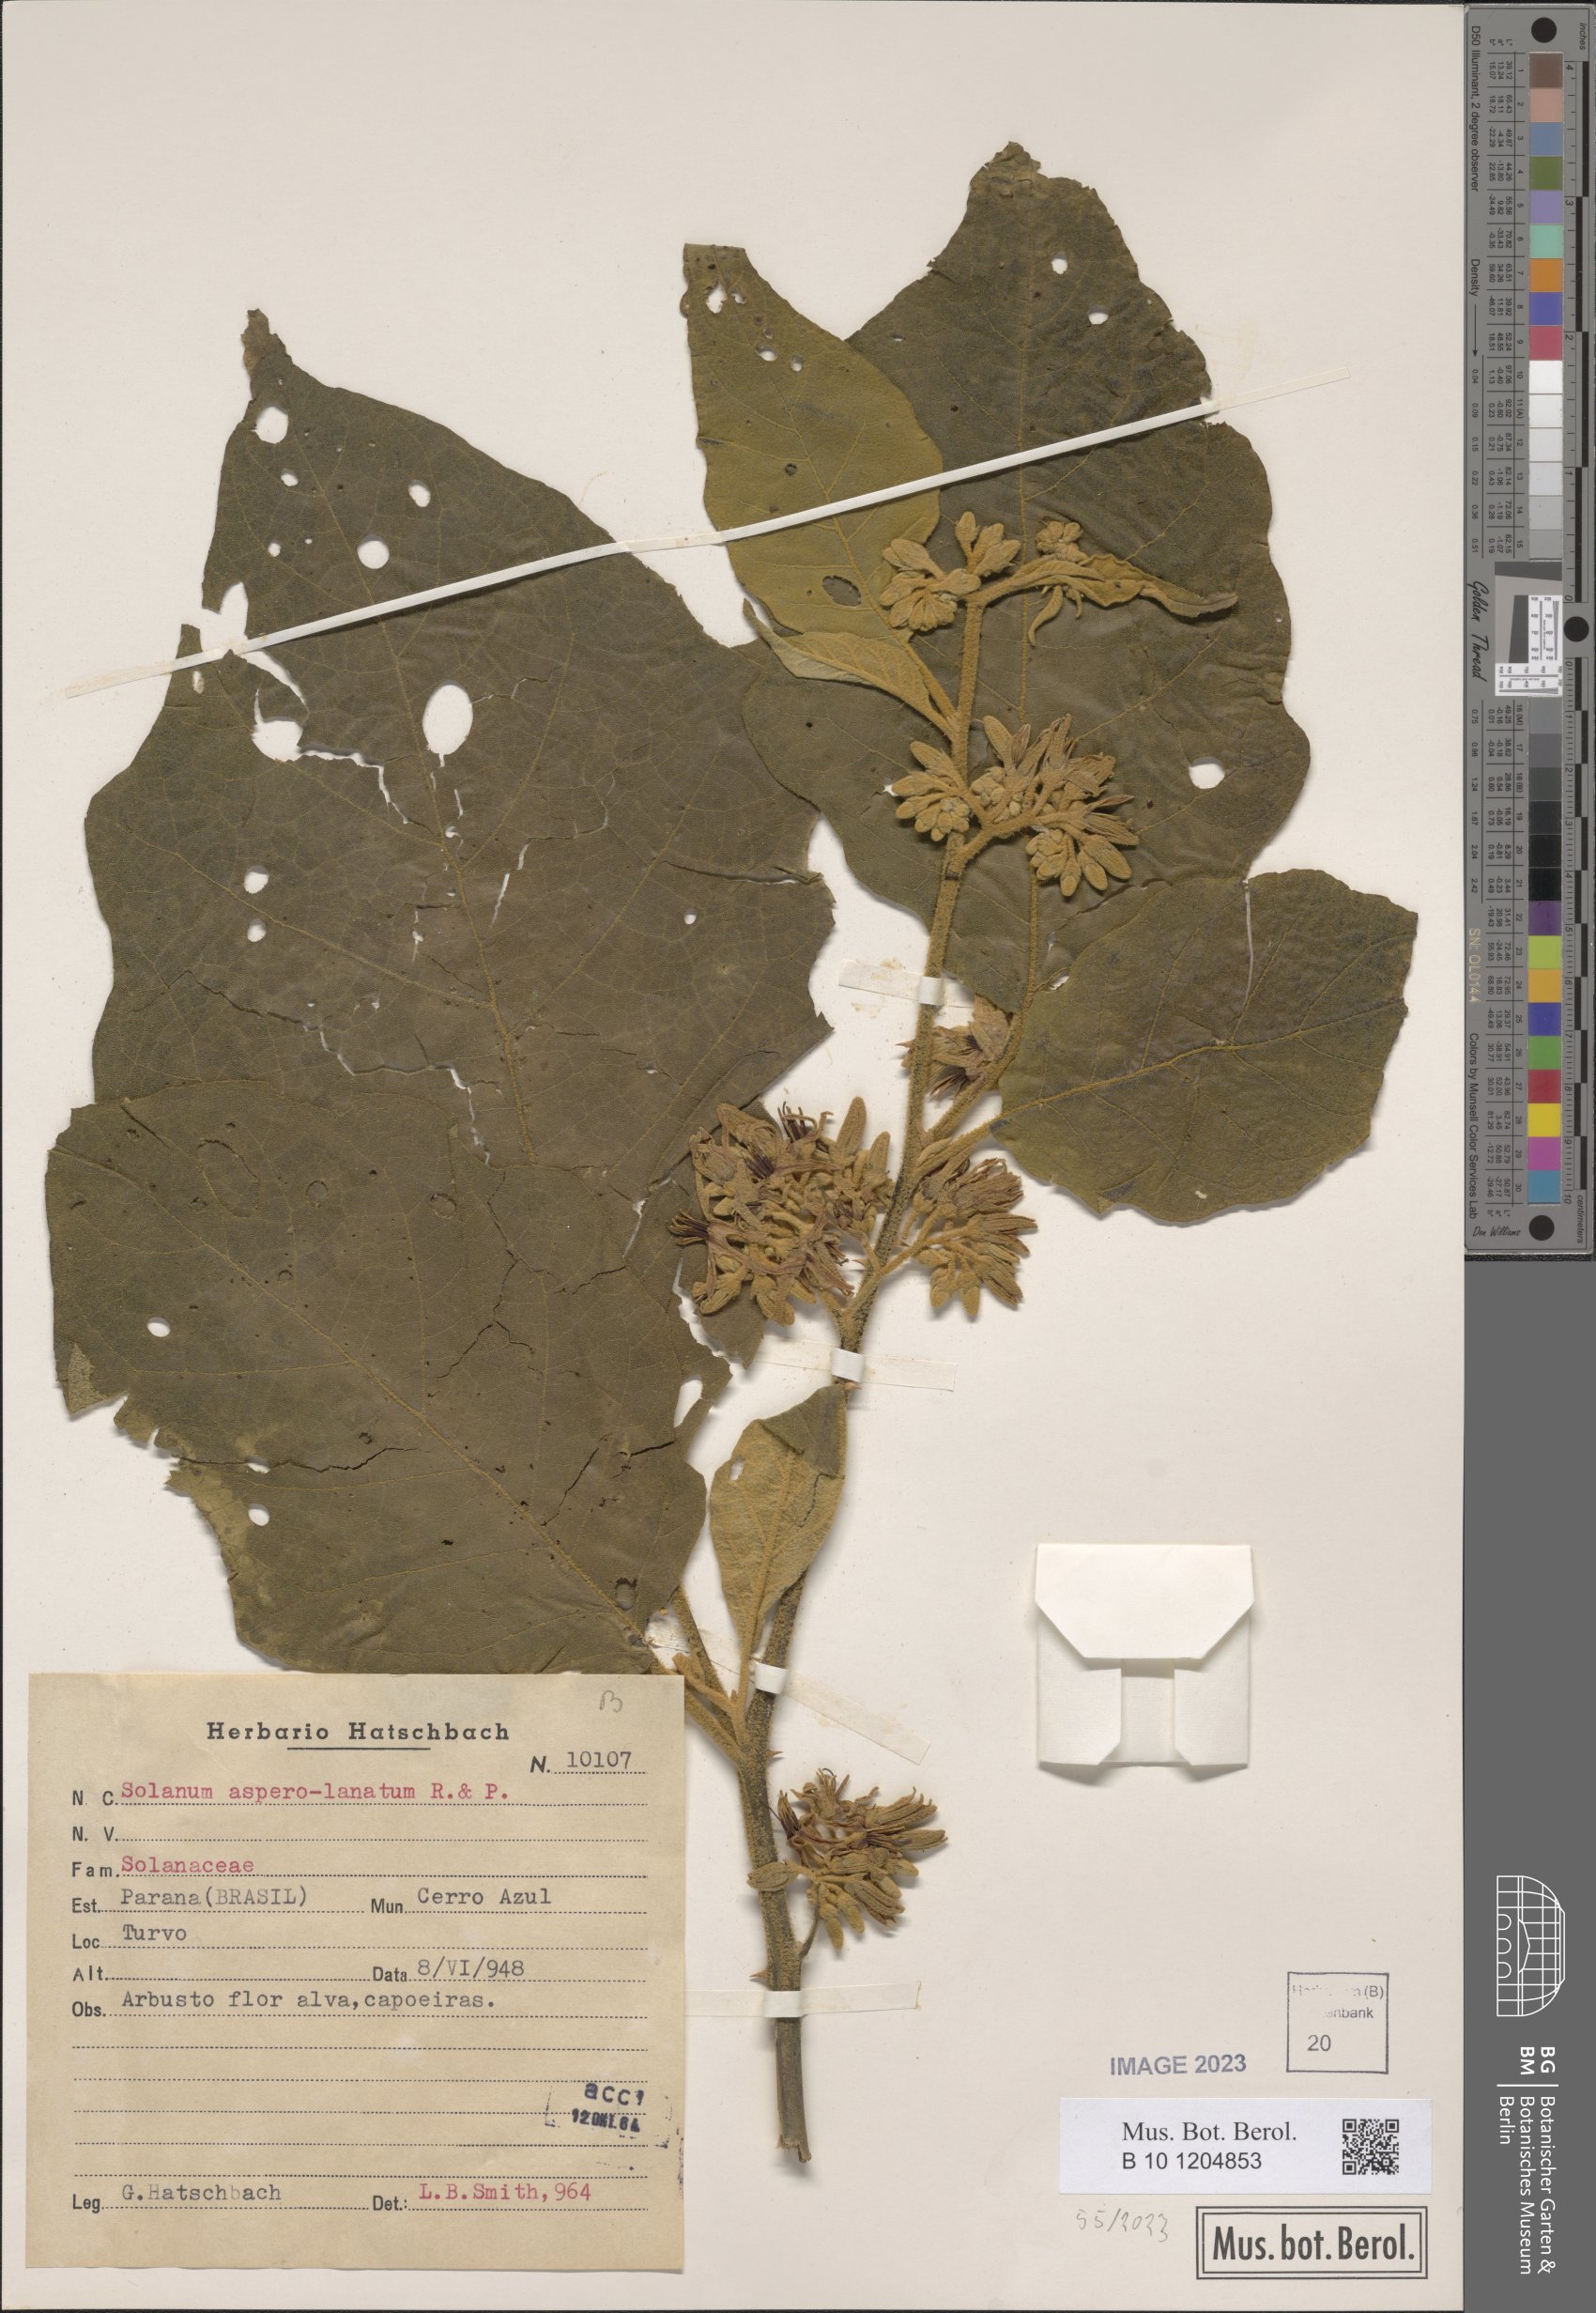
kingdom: Plantae
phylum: Tracheophyta
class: Magnoliopsida
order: Solanales
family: Solanaceae
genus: Solanum
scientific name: Solanum asperolanatum
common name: Devil's-fig
